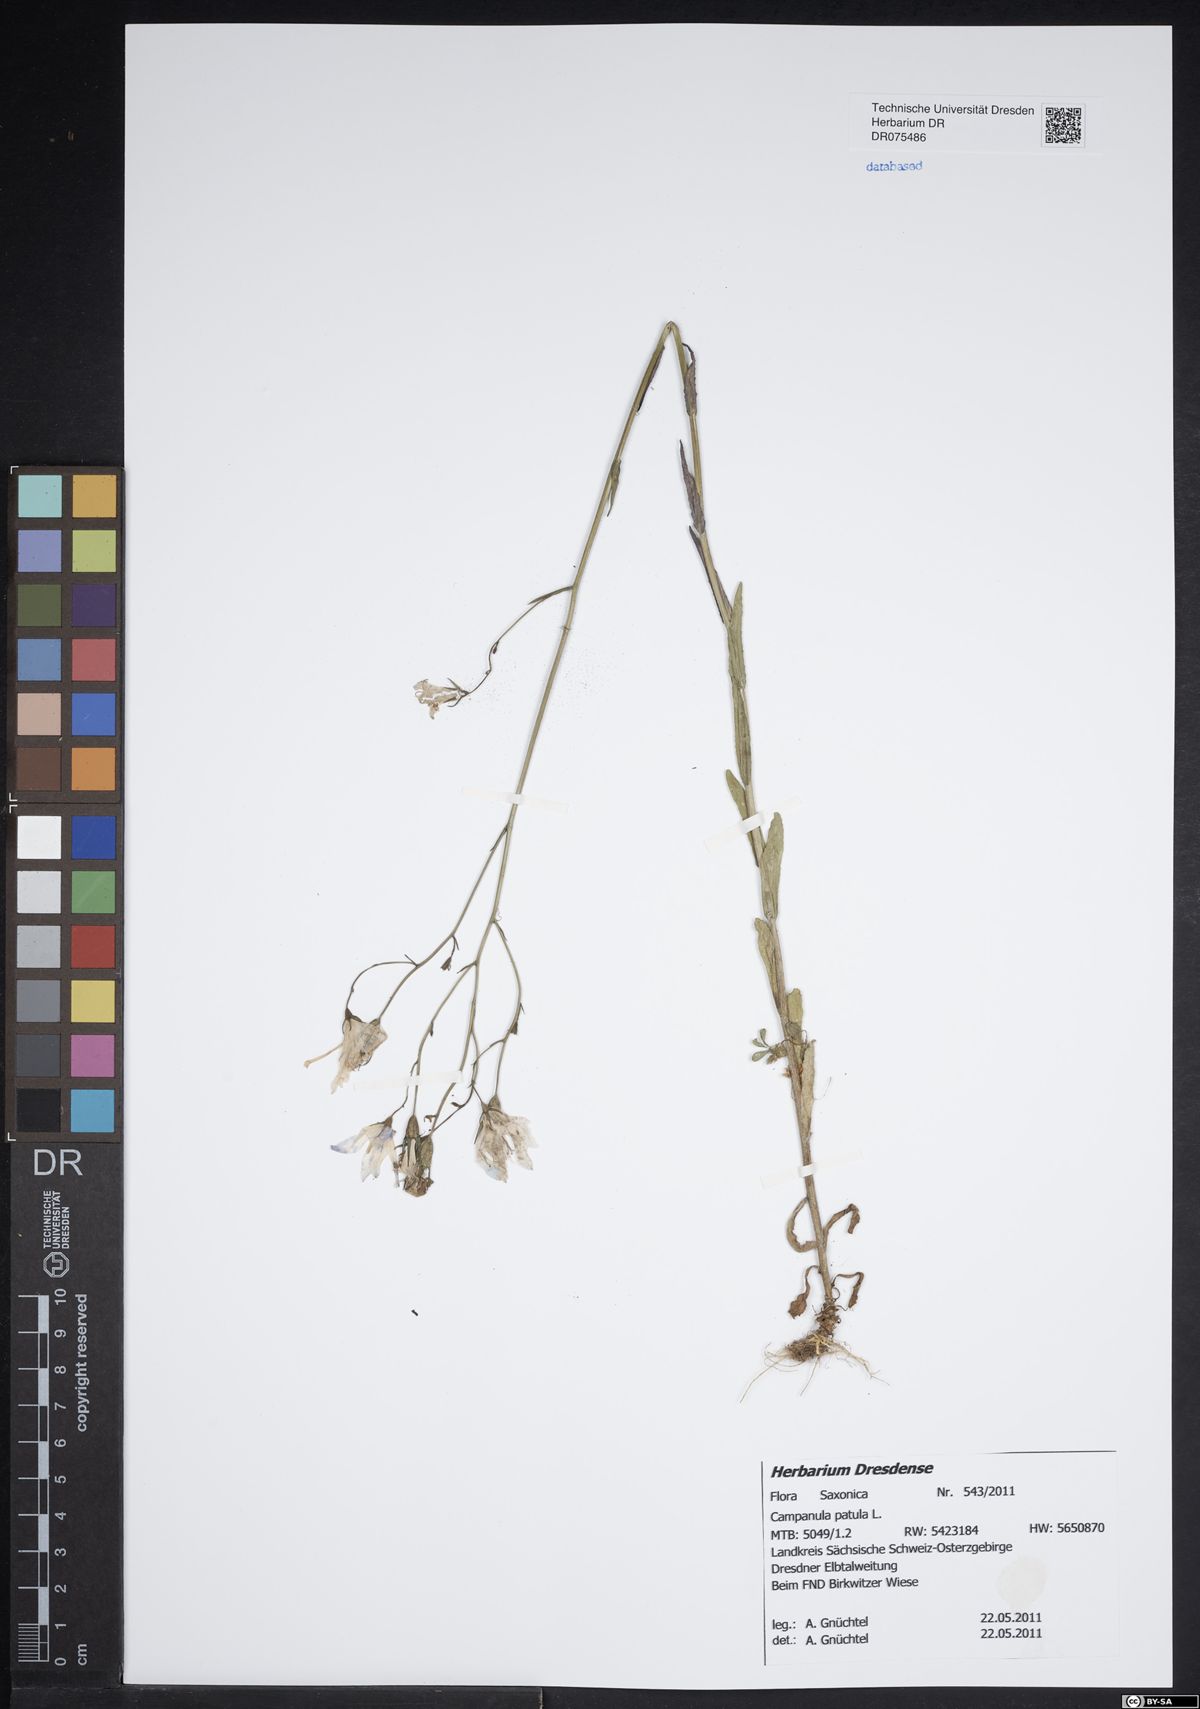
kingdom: Plantae
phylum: Tracheophyta
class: Magnoliopsida
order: Asterales
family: Campanulaceae
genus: Campanula
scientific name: Campanula patula
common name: Spreading bellflower
